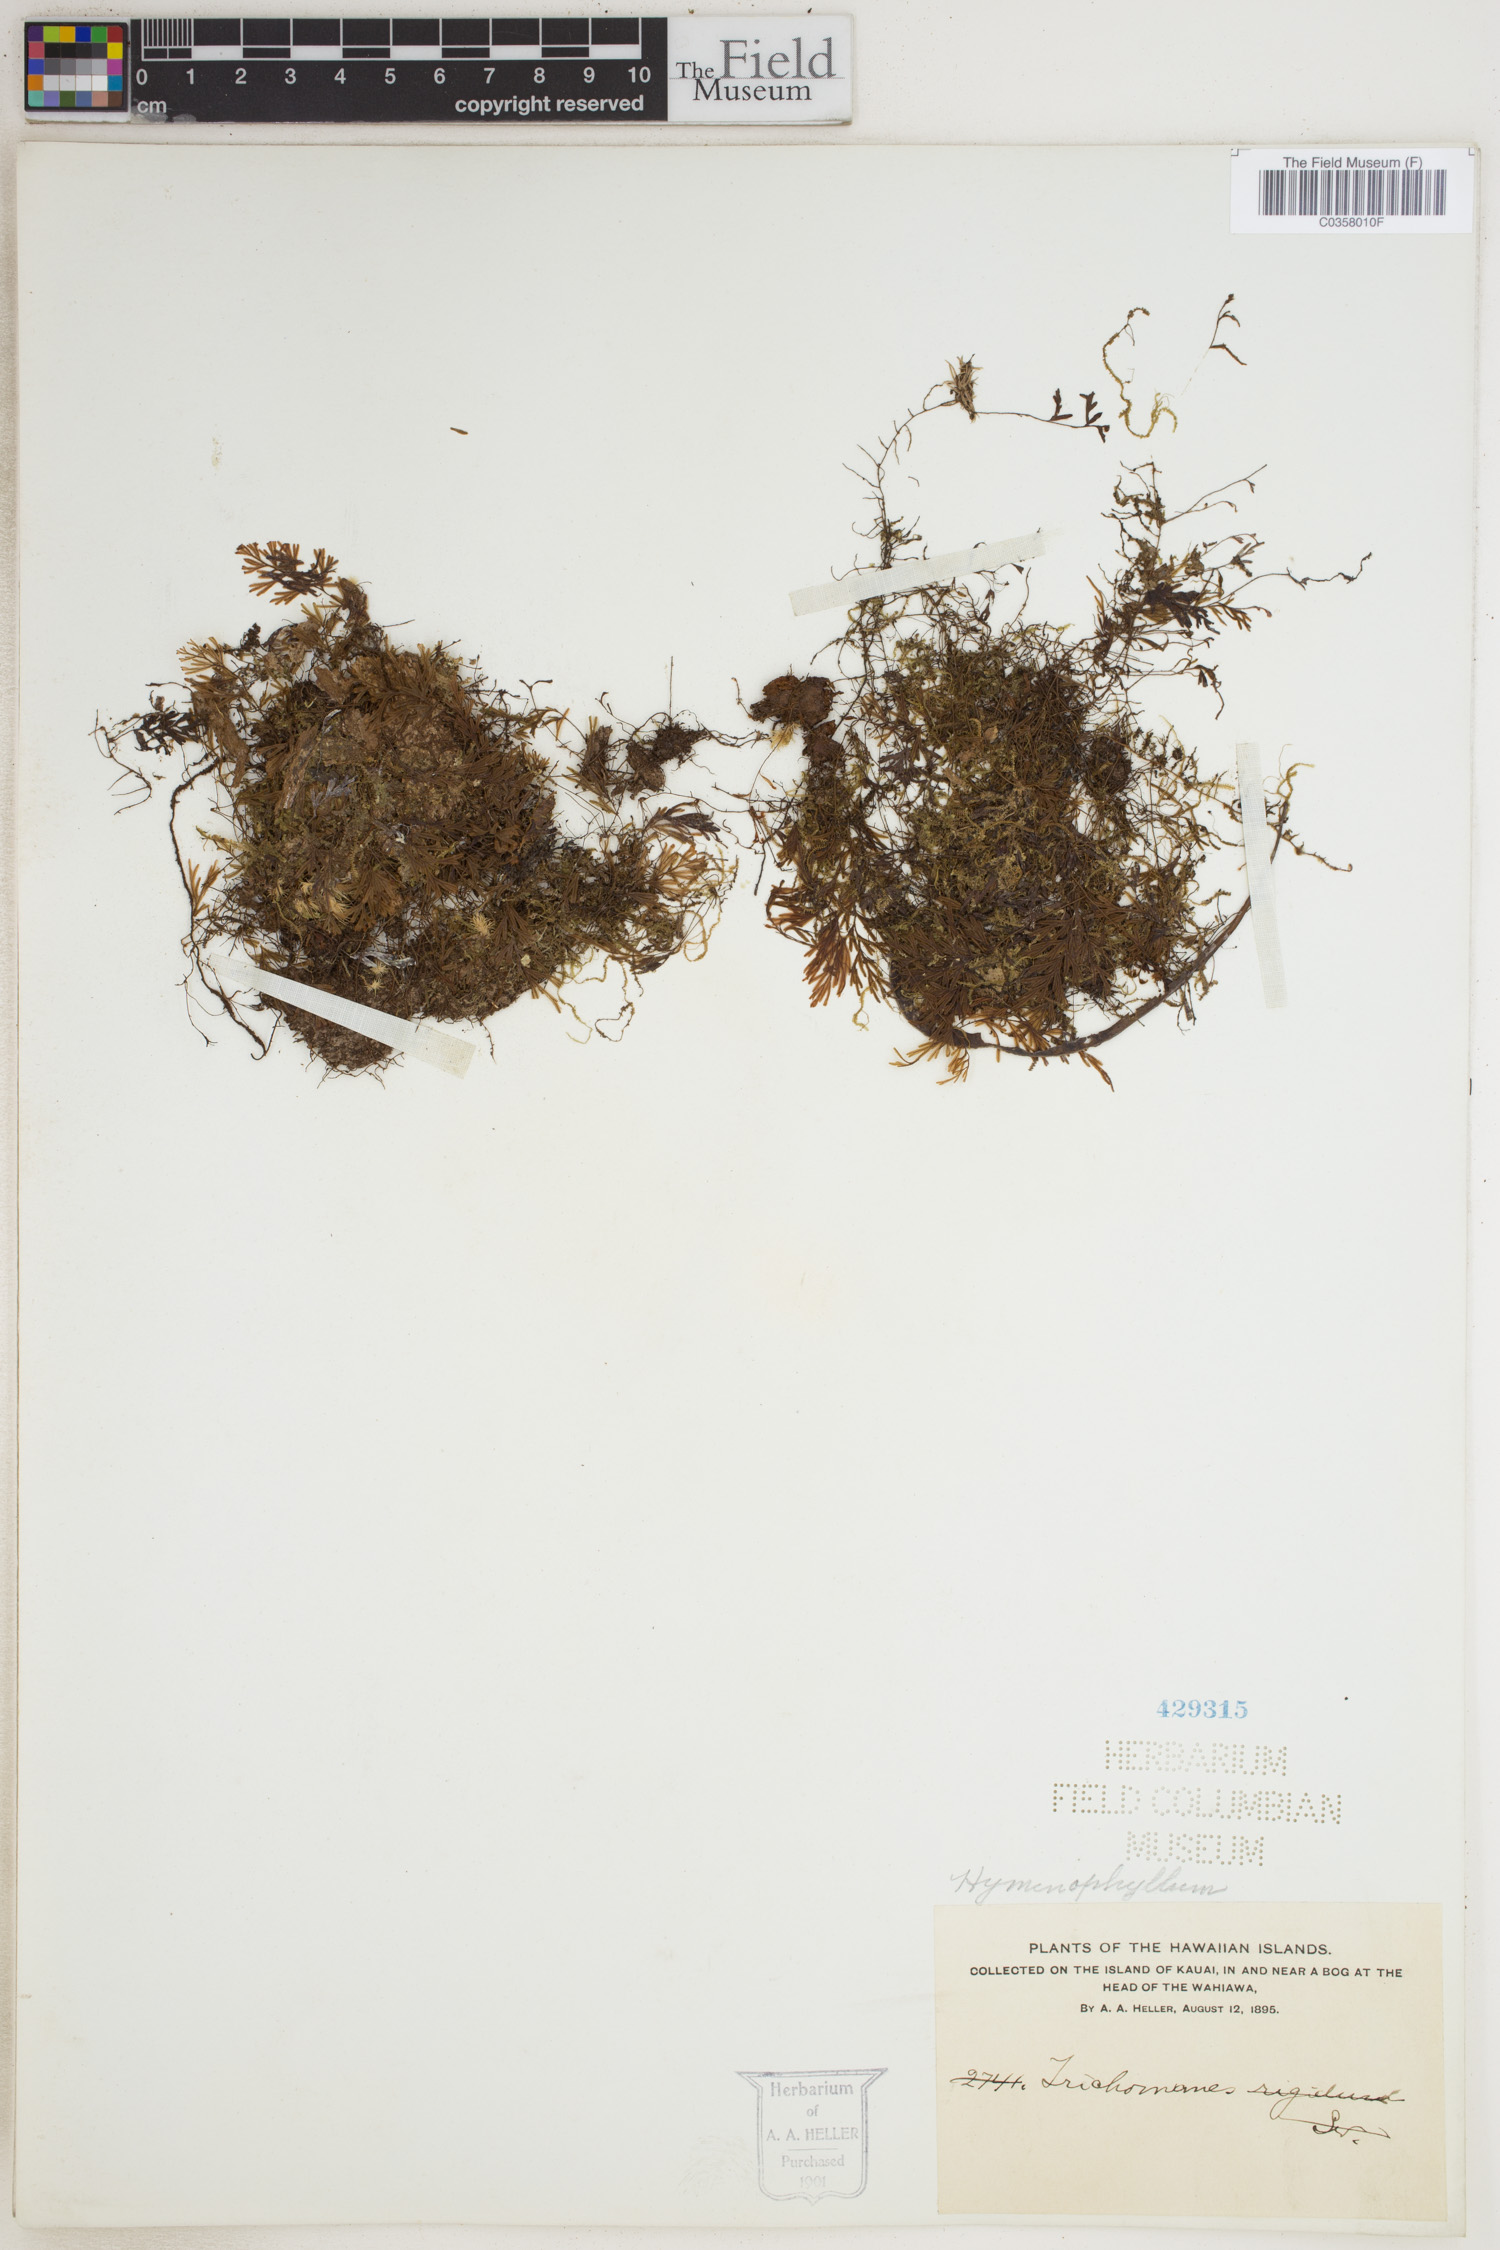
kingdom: Plantae
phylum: Tracheophyta
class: Polypodiopsida
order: Hymenophyllales
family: Hymenophyllaceae
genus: Hymenophyllum
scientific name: Hymenophyllum
